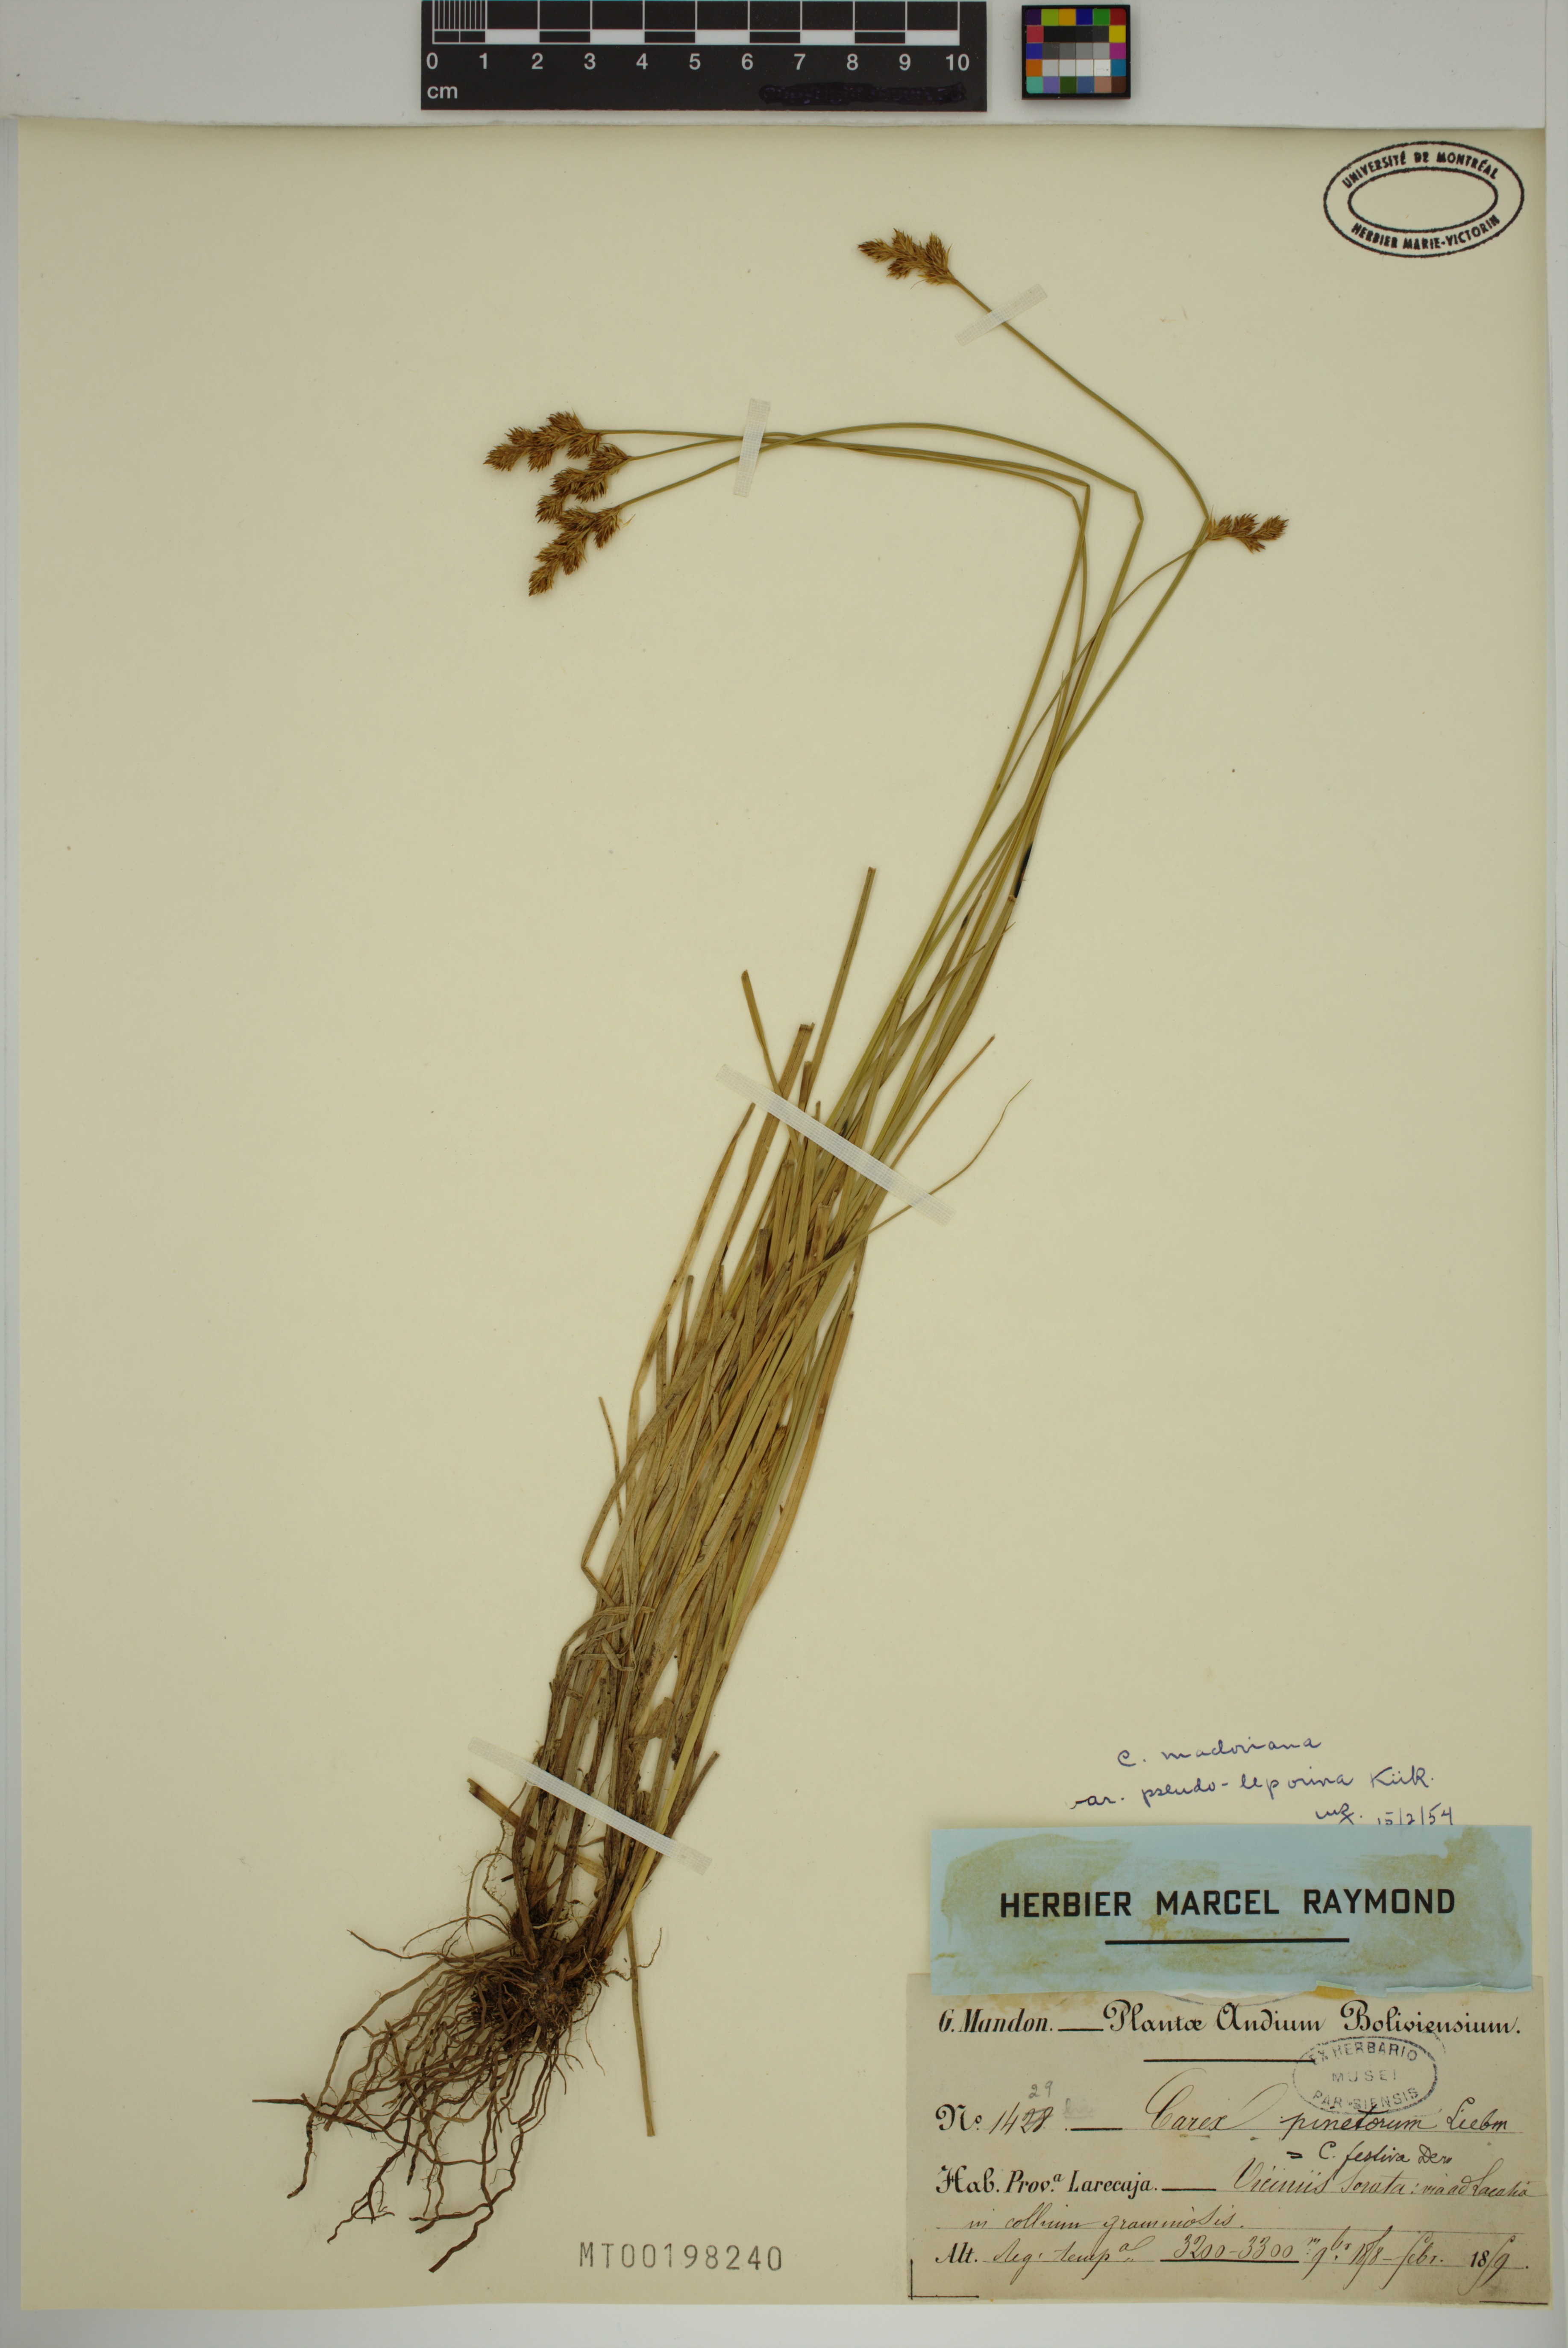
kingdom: Plantae
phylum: Tracheophyta
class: Liliopsida
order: Poales
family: Cyperaceae
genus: Carex
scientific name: Carex macloviana
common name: Falkland island sedge
